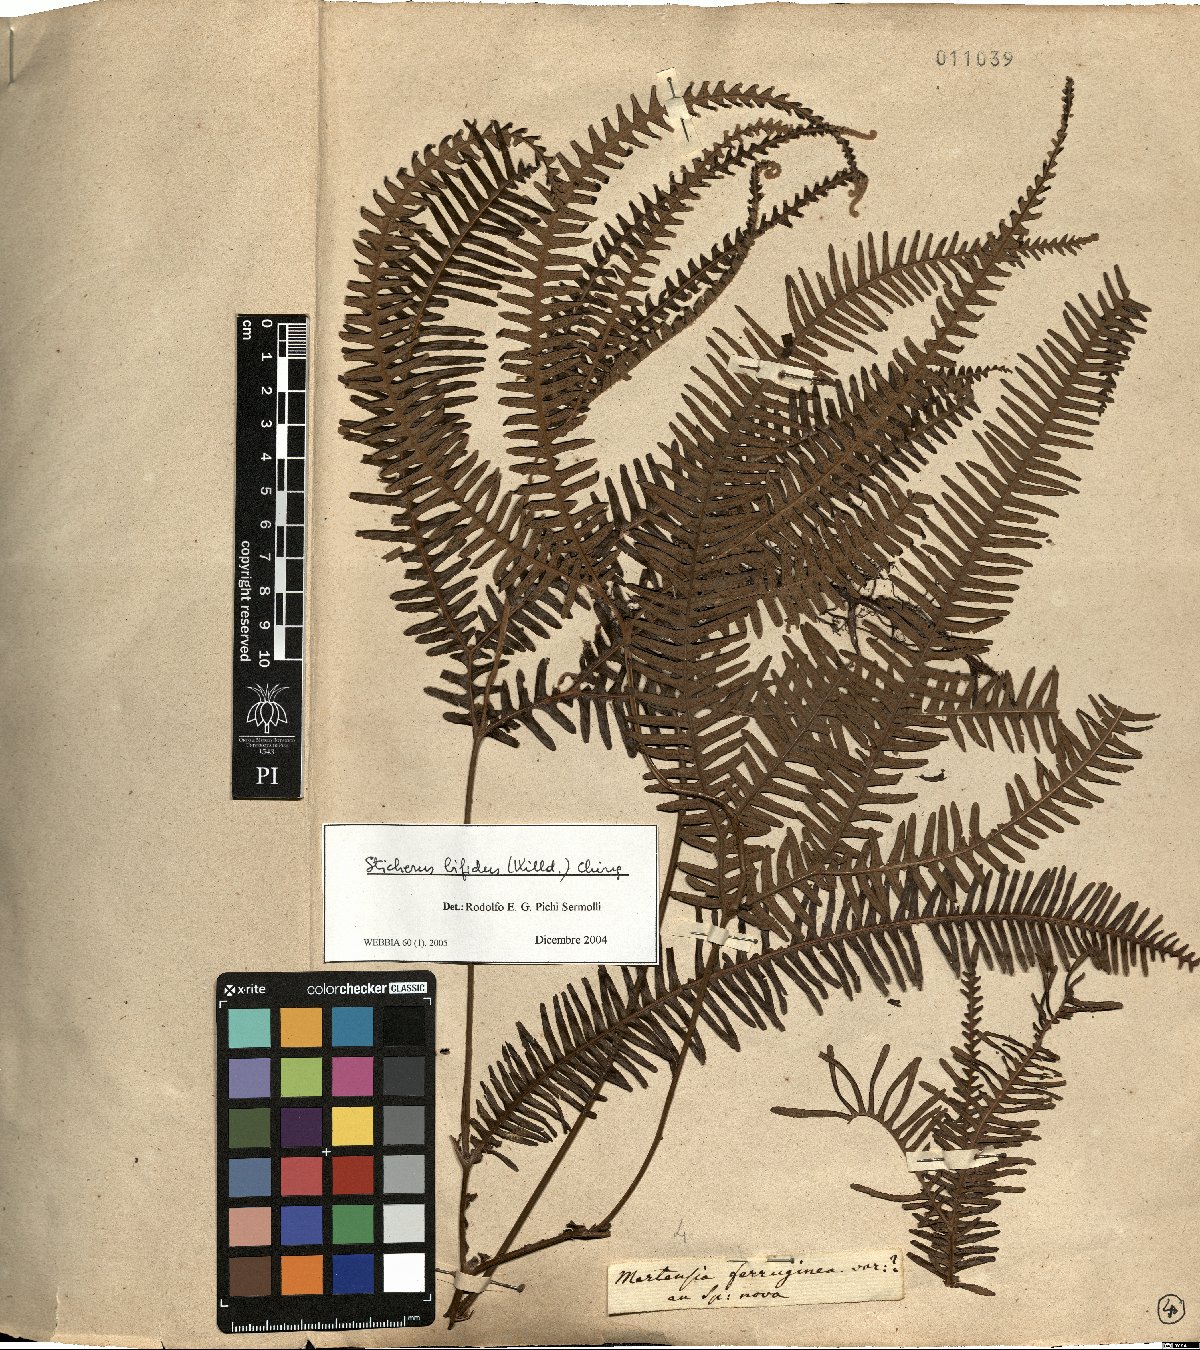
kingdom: Plantae
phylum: Tracheophyta
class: Polypodiopsida
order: Gleicheniales
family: Gleicheniaceae
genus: Sticherus
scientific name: Sticherus bifidus
